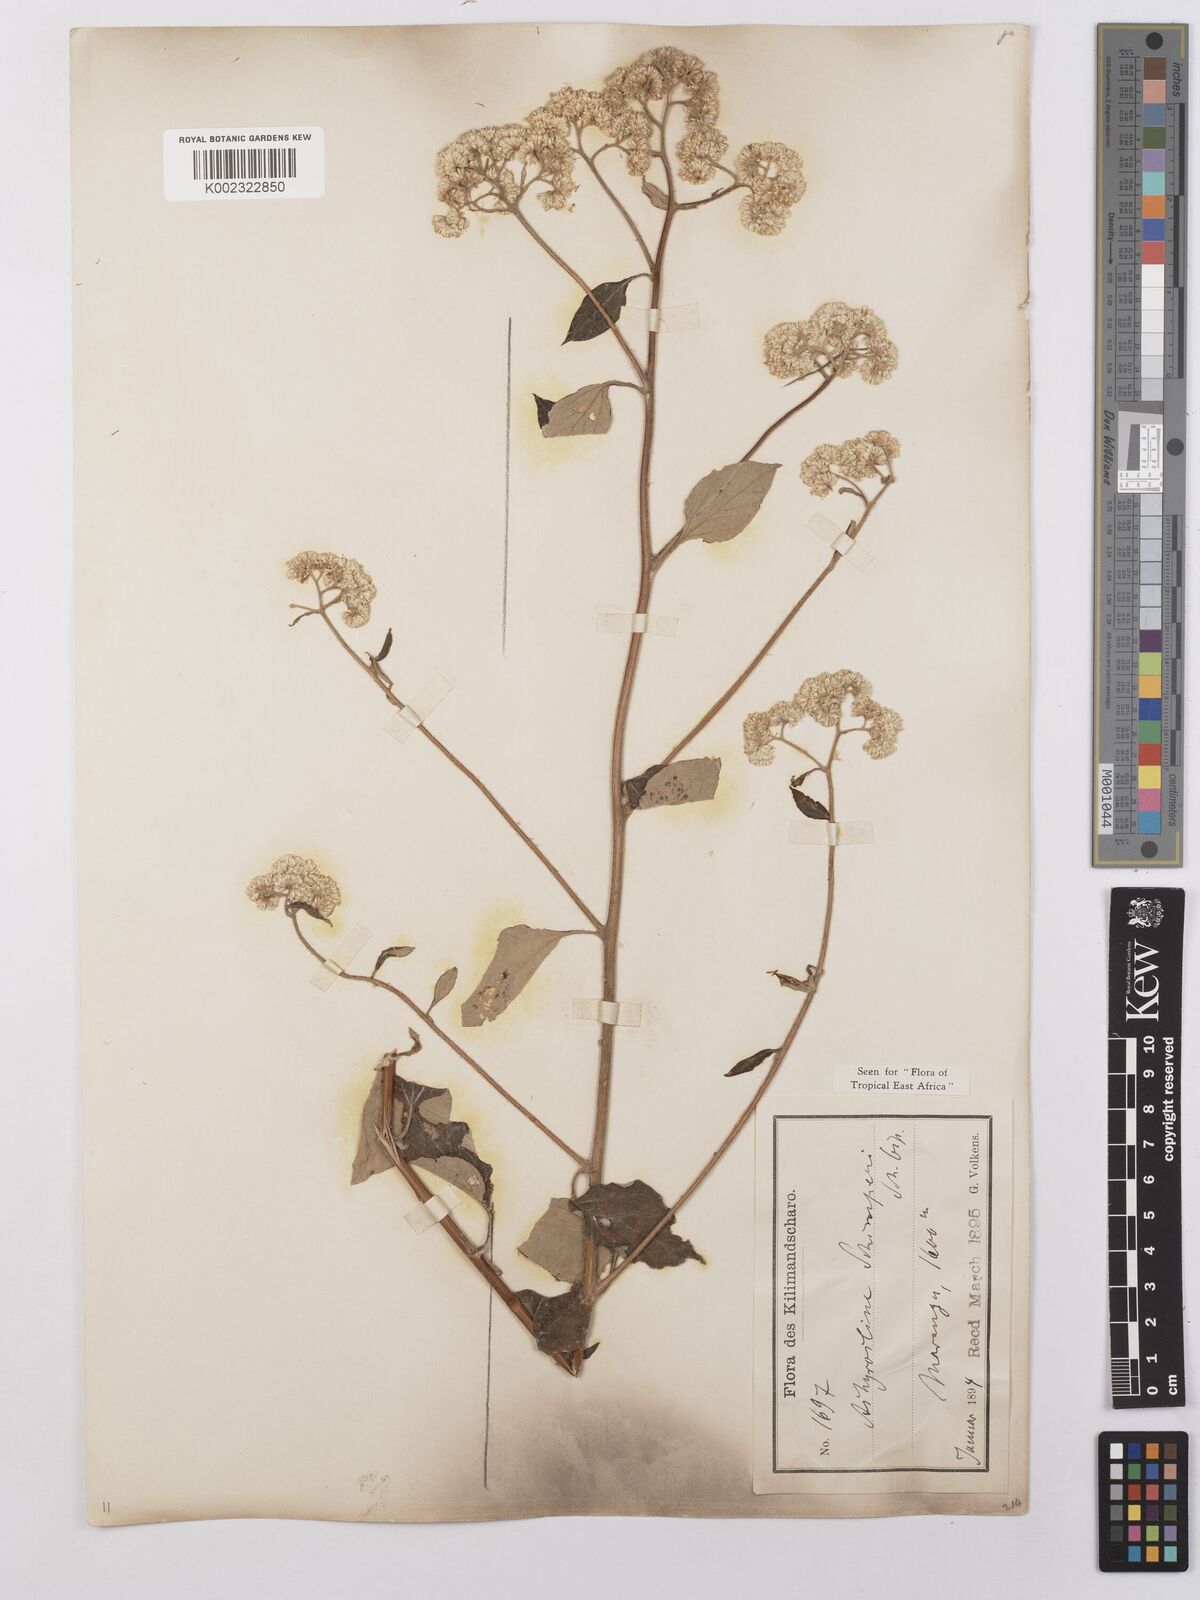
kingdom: Plantae
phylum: Tracheophyta
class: Magnoliopsida
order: Asterales
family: Asteraceae
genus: Helichrysum
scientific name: Helichrysum schimperi
